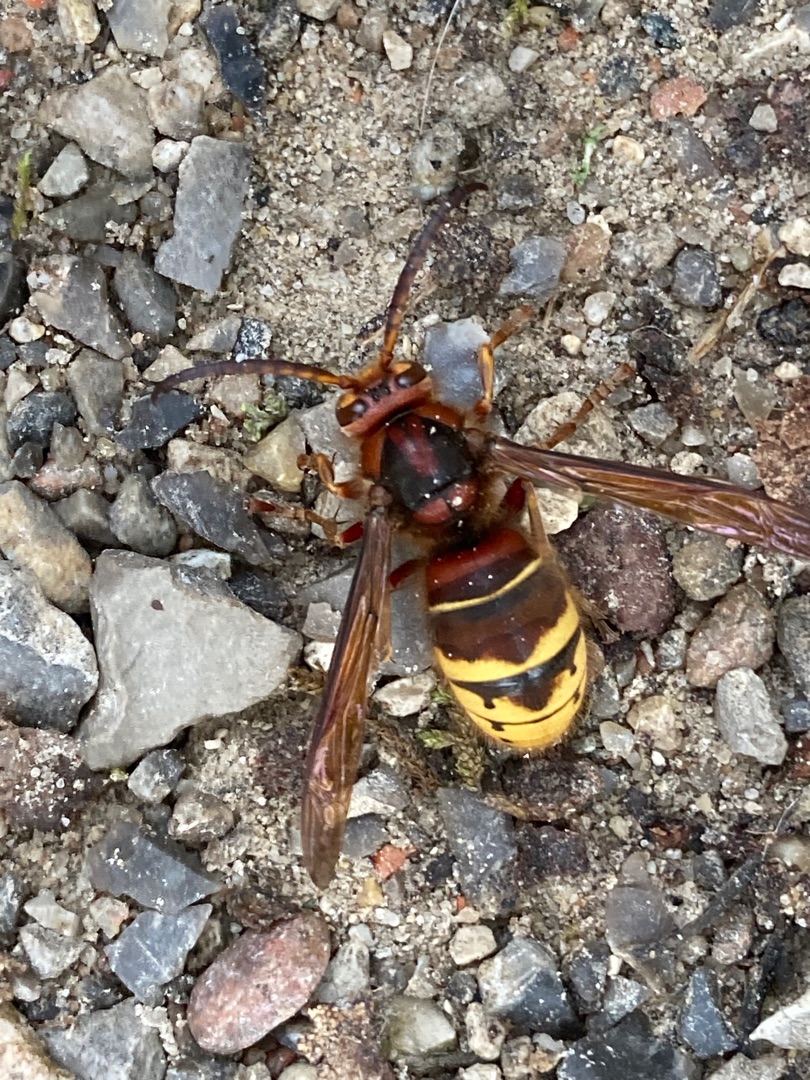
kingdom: Animalia
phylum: Arthropoda
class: Insecta
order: Hymenoptera
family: Vespidae
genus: Vespa
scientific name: Vespa crabro
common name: Stor gedehams
